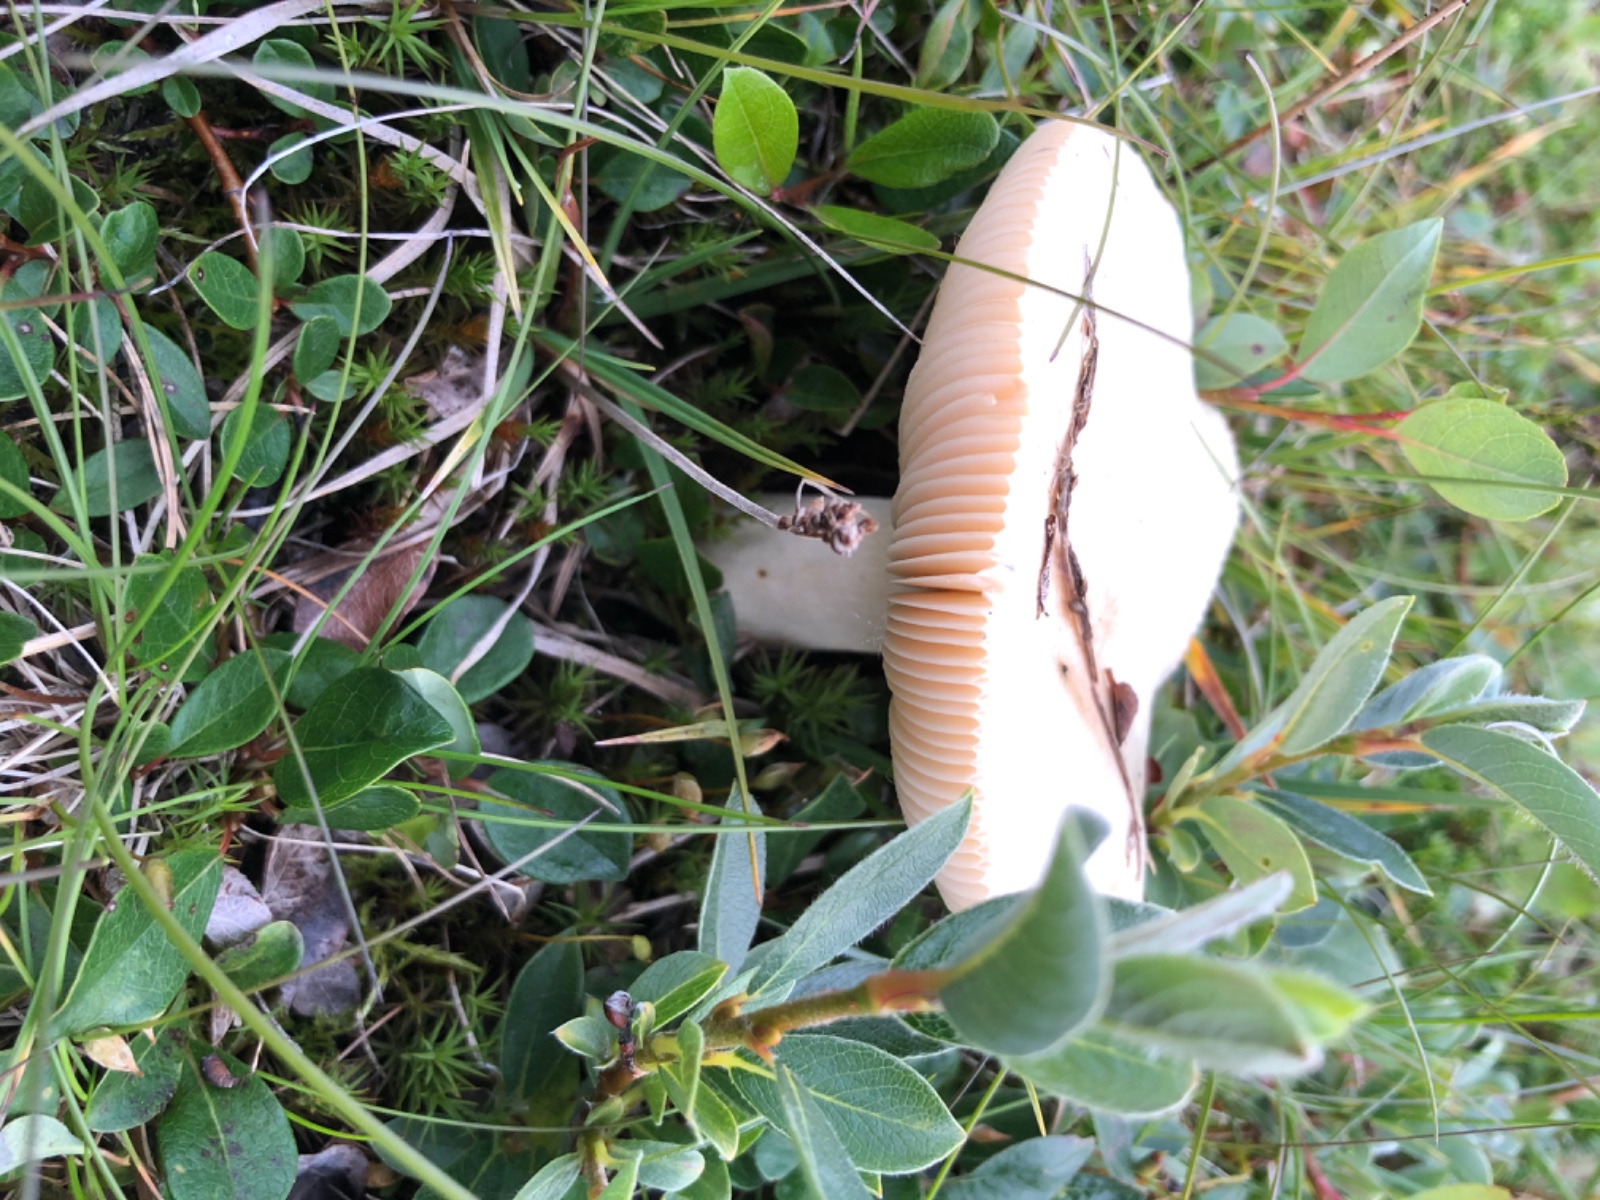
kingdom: Fungi
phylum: Basidiomycota
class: Agaricomycetes
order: Russulales
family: Russulaceae
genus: Russula
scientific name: Russula
